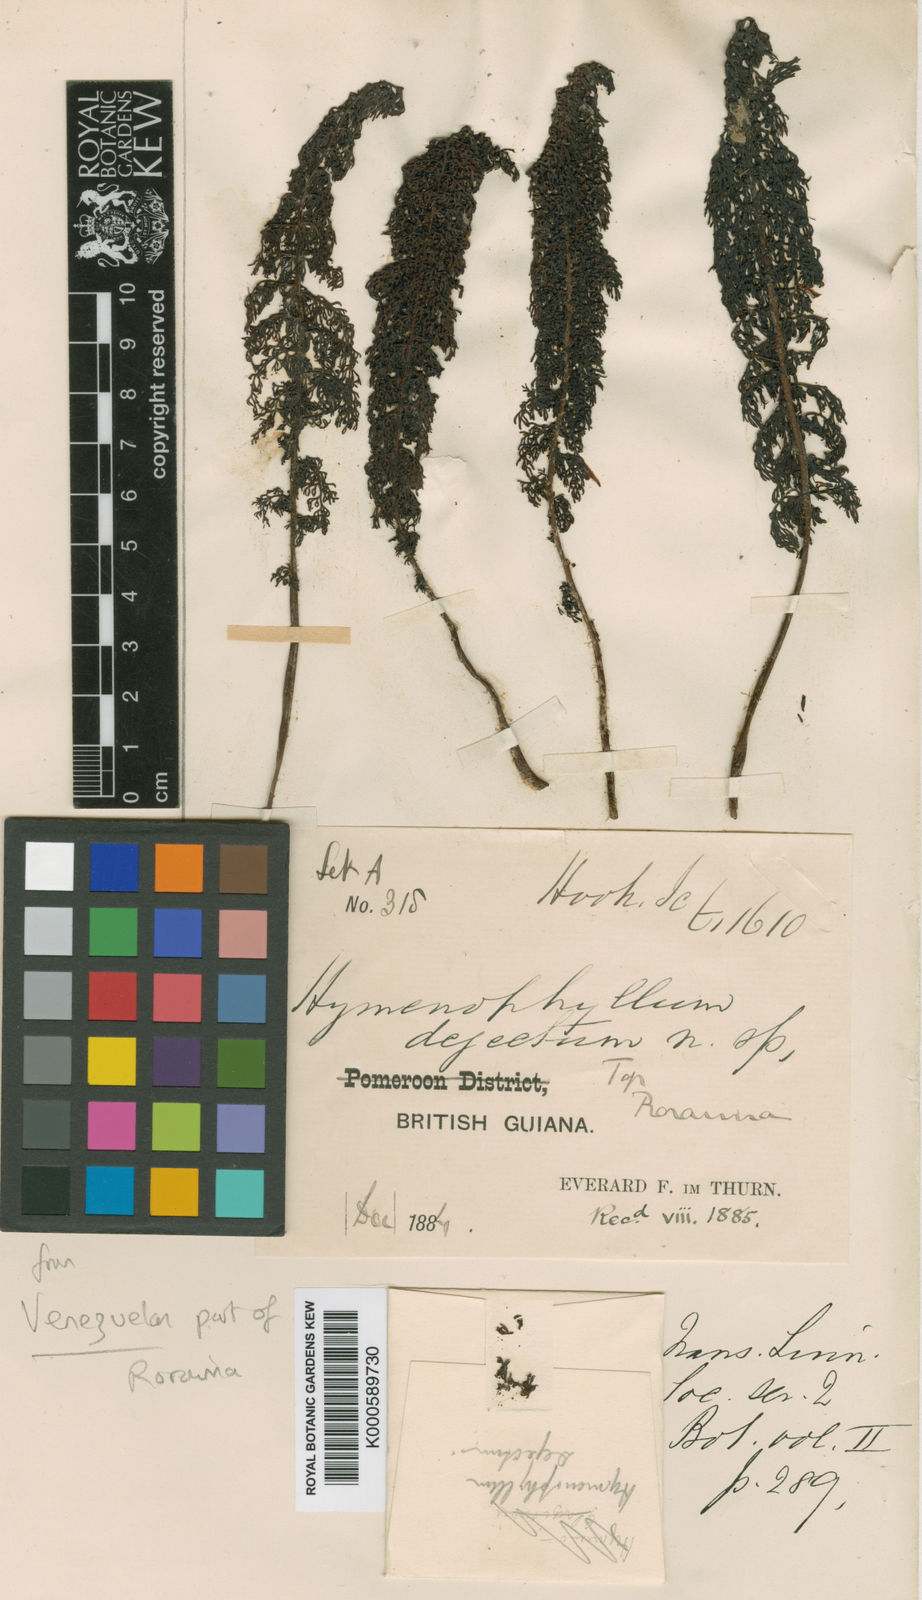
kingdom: Plantae
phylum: Tracheophyta
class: Polypodiopsida
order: Cyatheales
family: Cyatheaceae
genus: Cyathea
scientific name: Cyathea dejecta
